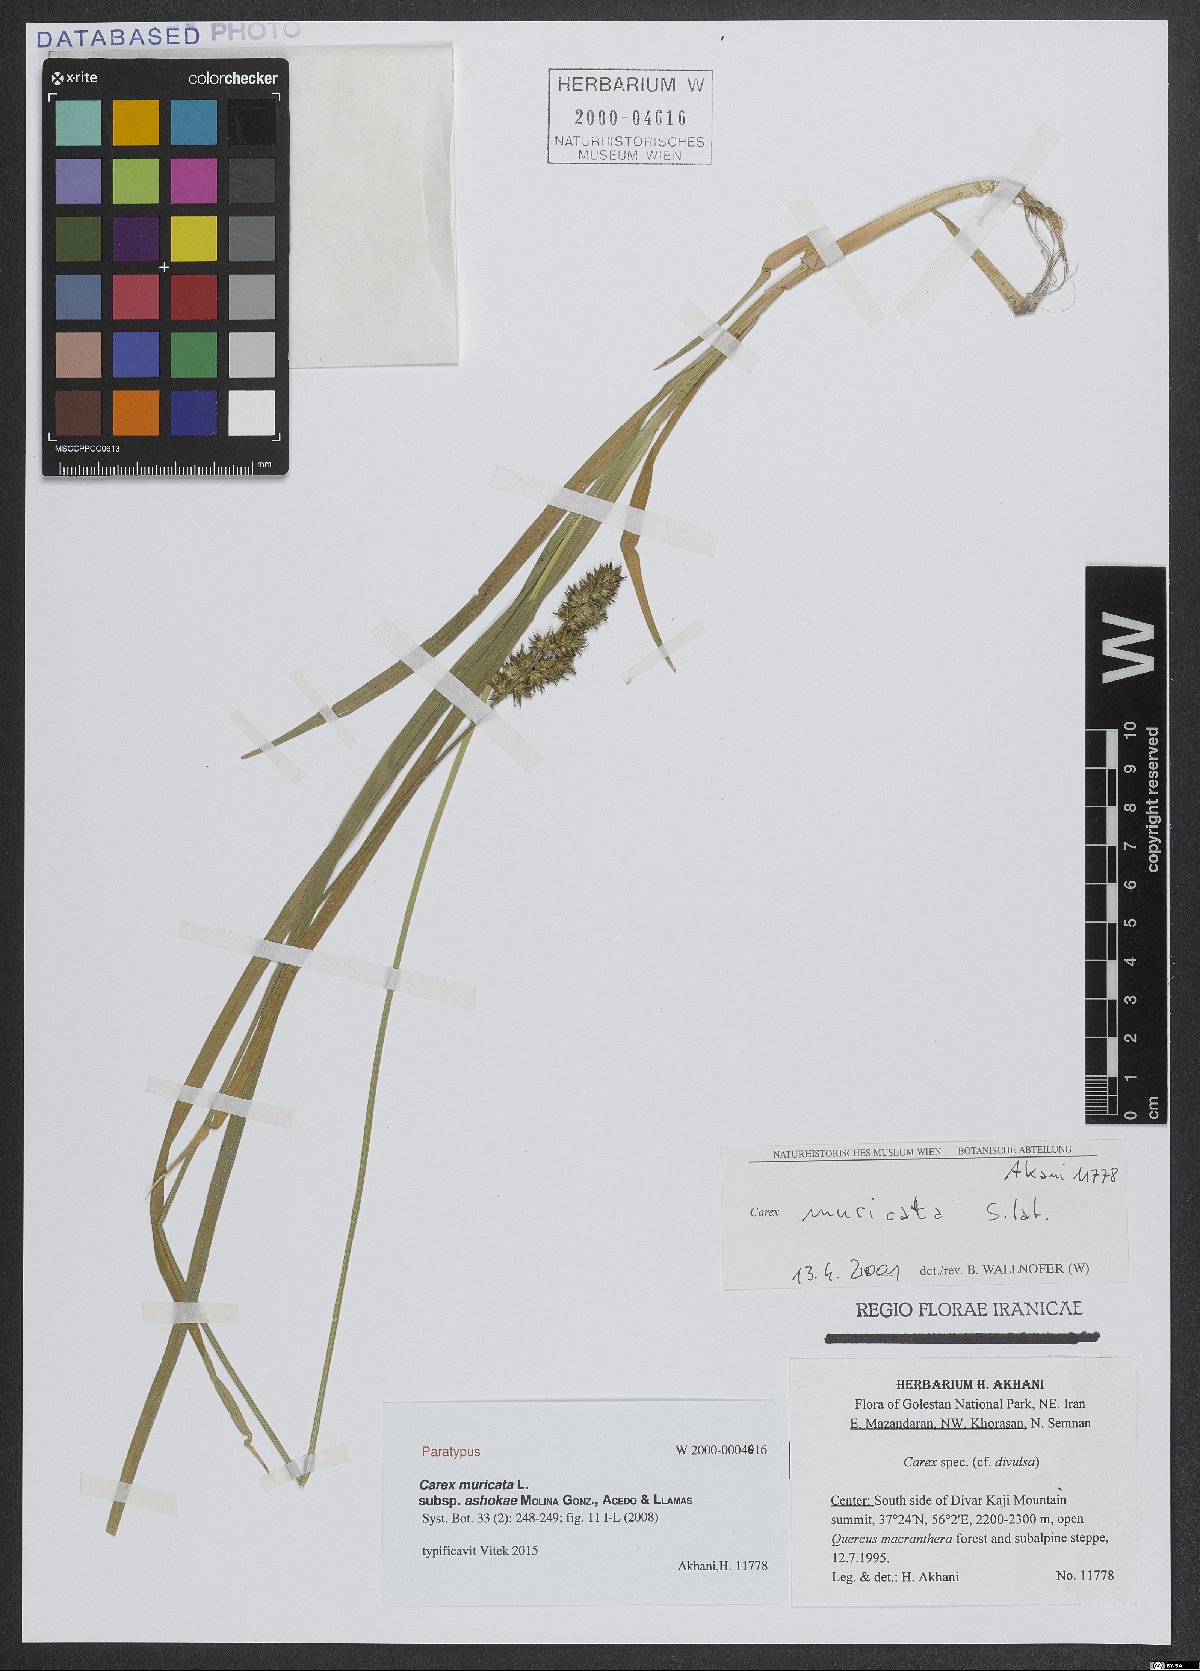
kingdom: Plantae
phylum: Tracheophyta
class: Liliopsida
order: Poales
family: Cyperaceae
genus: Carex
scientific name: Carex muricata
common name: Rough sedge
